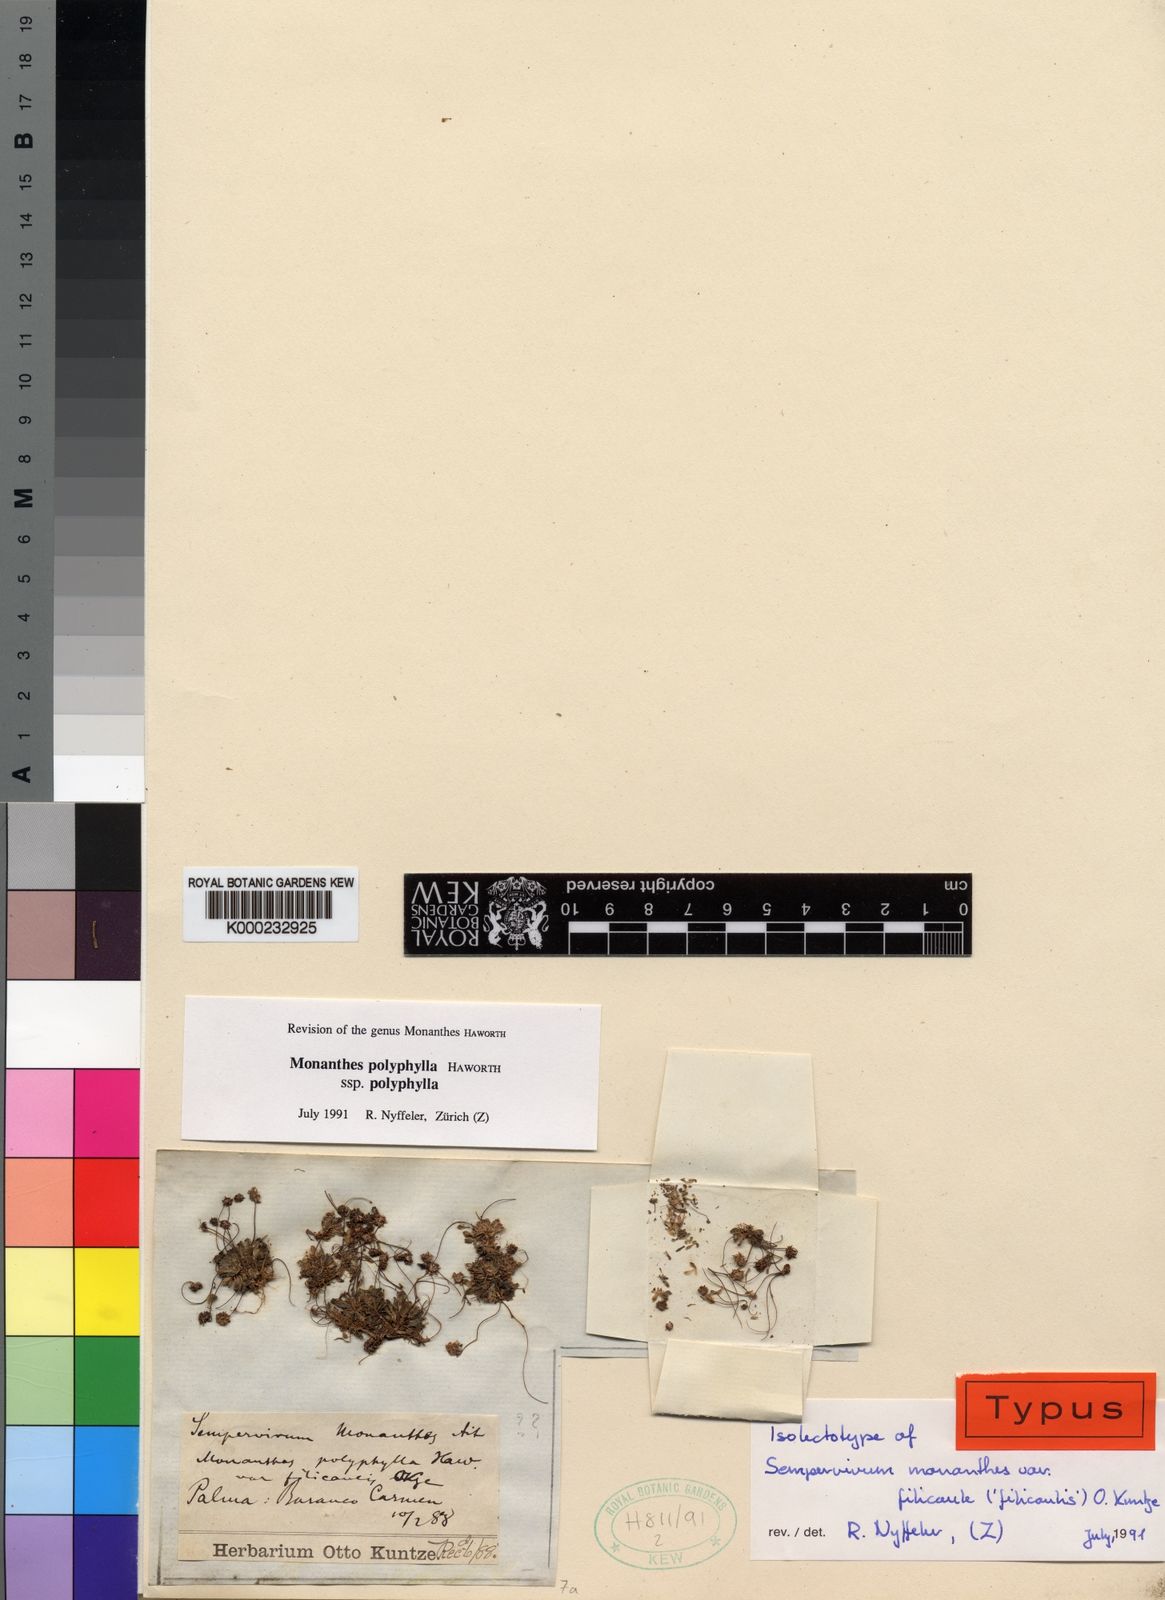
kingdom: Plantae
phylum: Tracheophyta
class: Magnoliopsida
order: Saxifragales
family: Crassulaceae
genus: Monanthes
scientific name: Monanthes polyphylla
